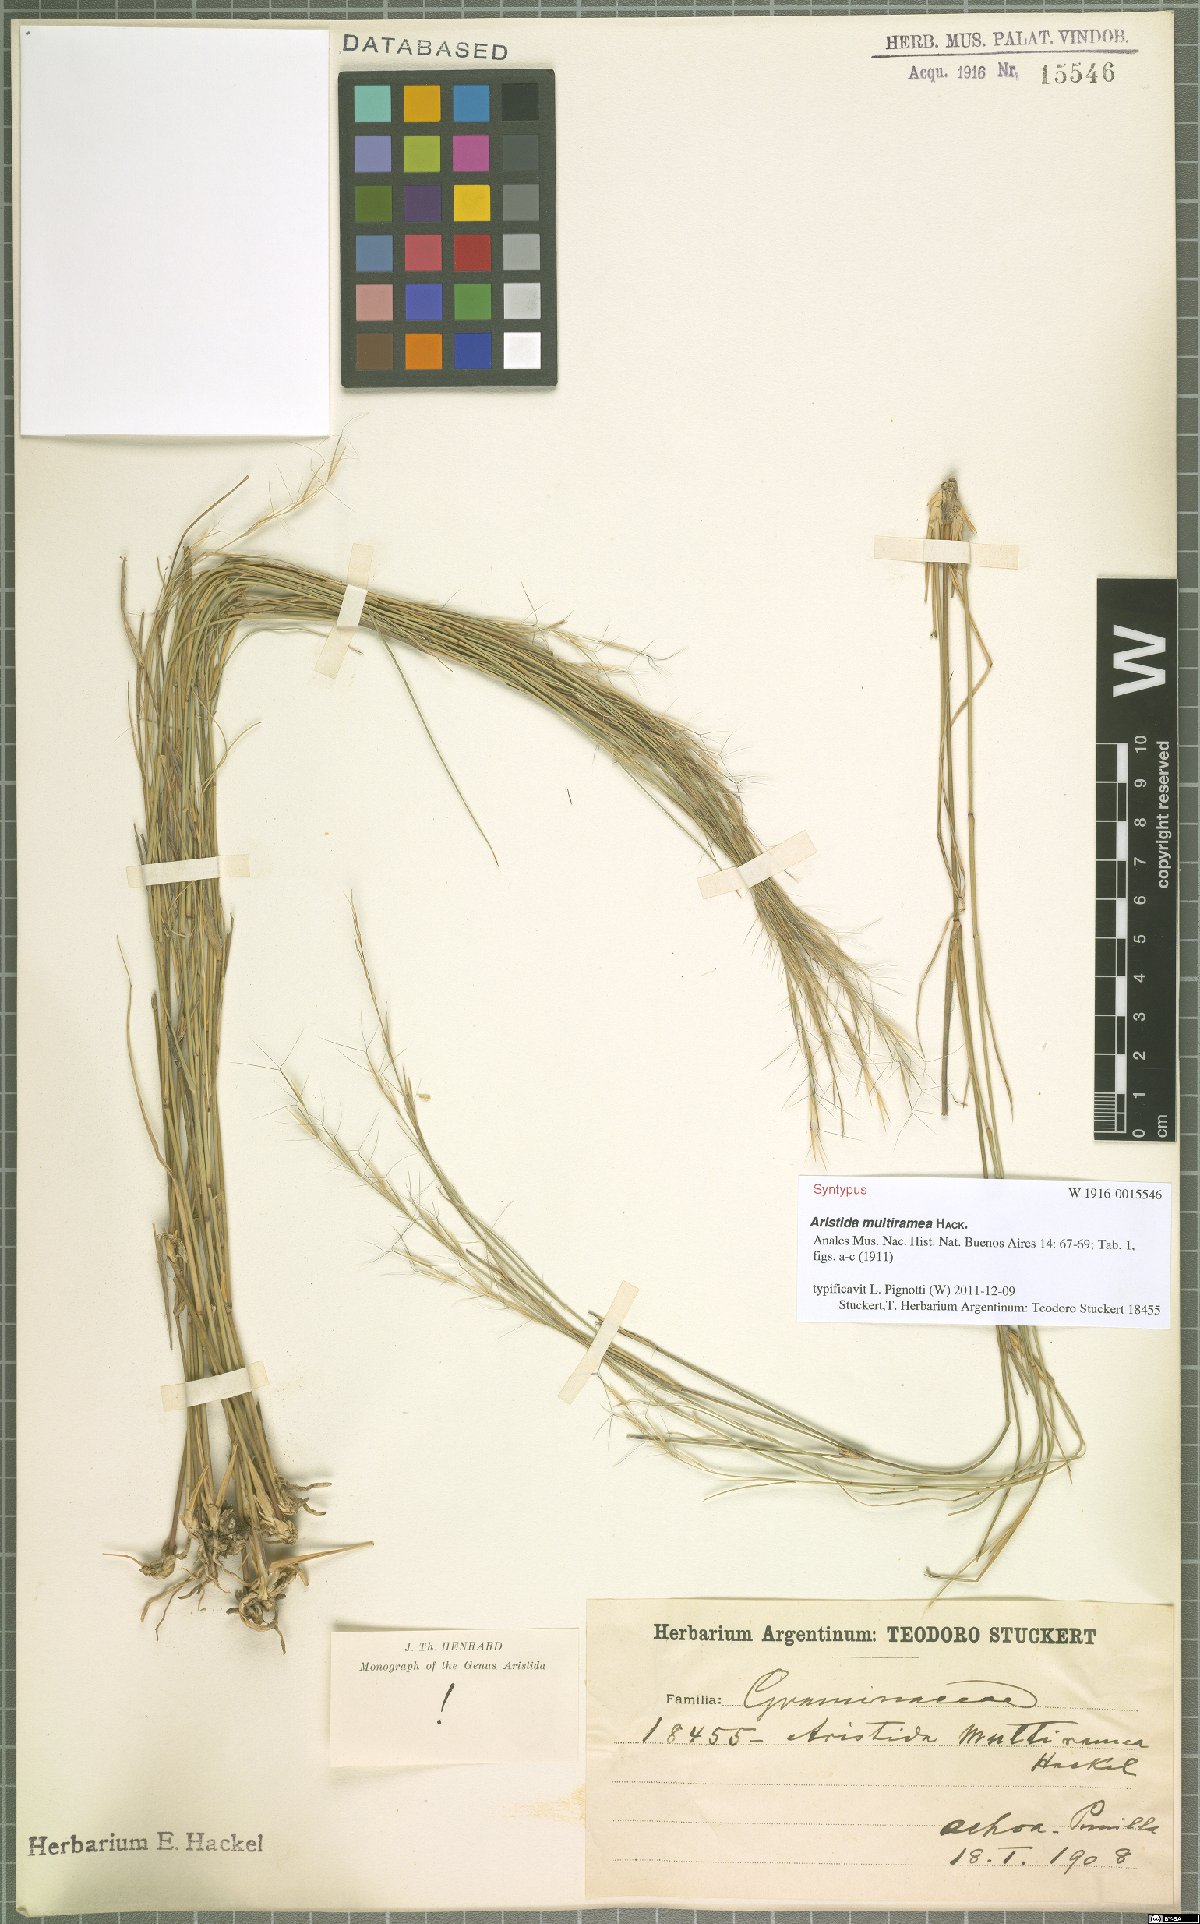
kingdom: Plantae
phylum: Tracheophyta
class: Liliopsida
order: Poales
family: Poaceae
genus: Aristida
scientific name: Aristida multiramea
